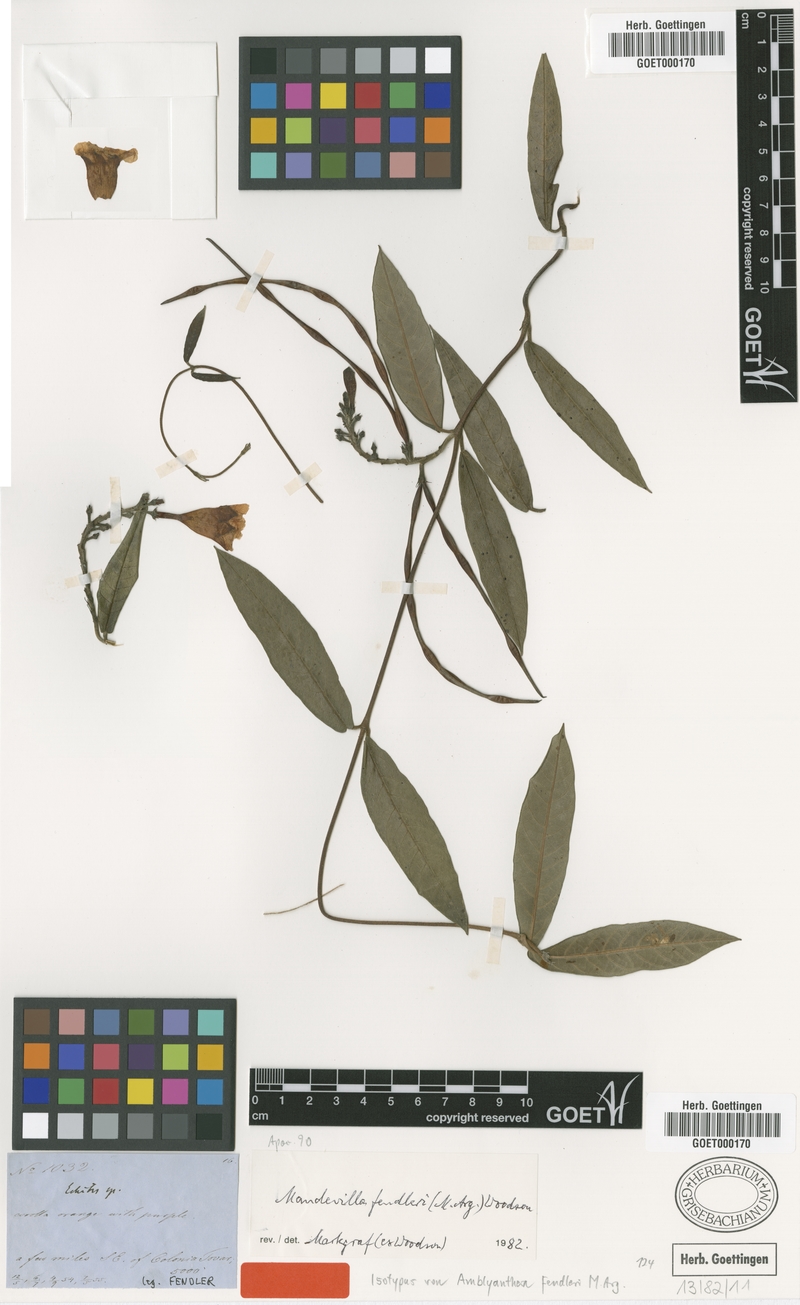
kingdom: Plantae
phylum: Tracheophyta
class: Magnoliopsida
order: Gentianales
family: Apocynaceae
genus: Mandevilla
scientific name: Mandevilla speciosa
